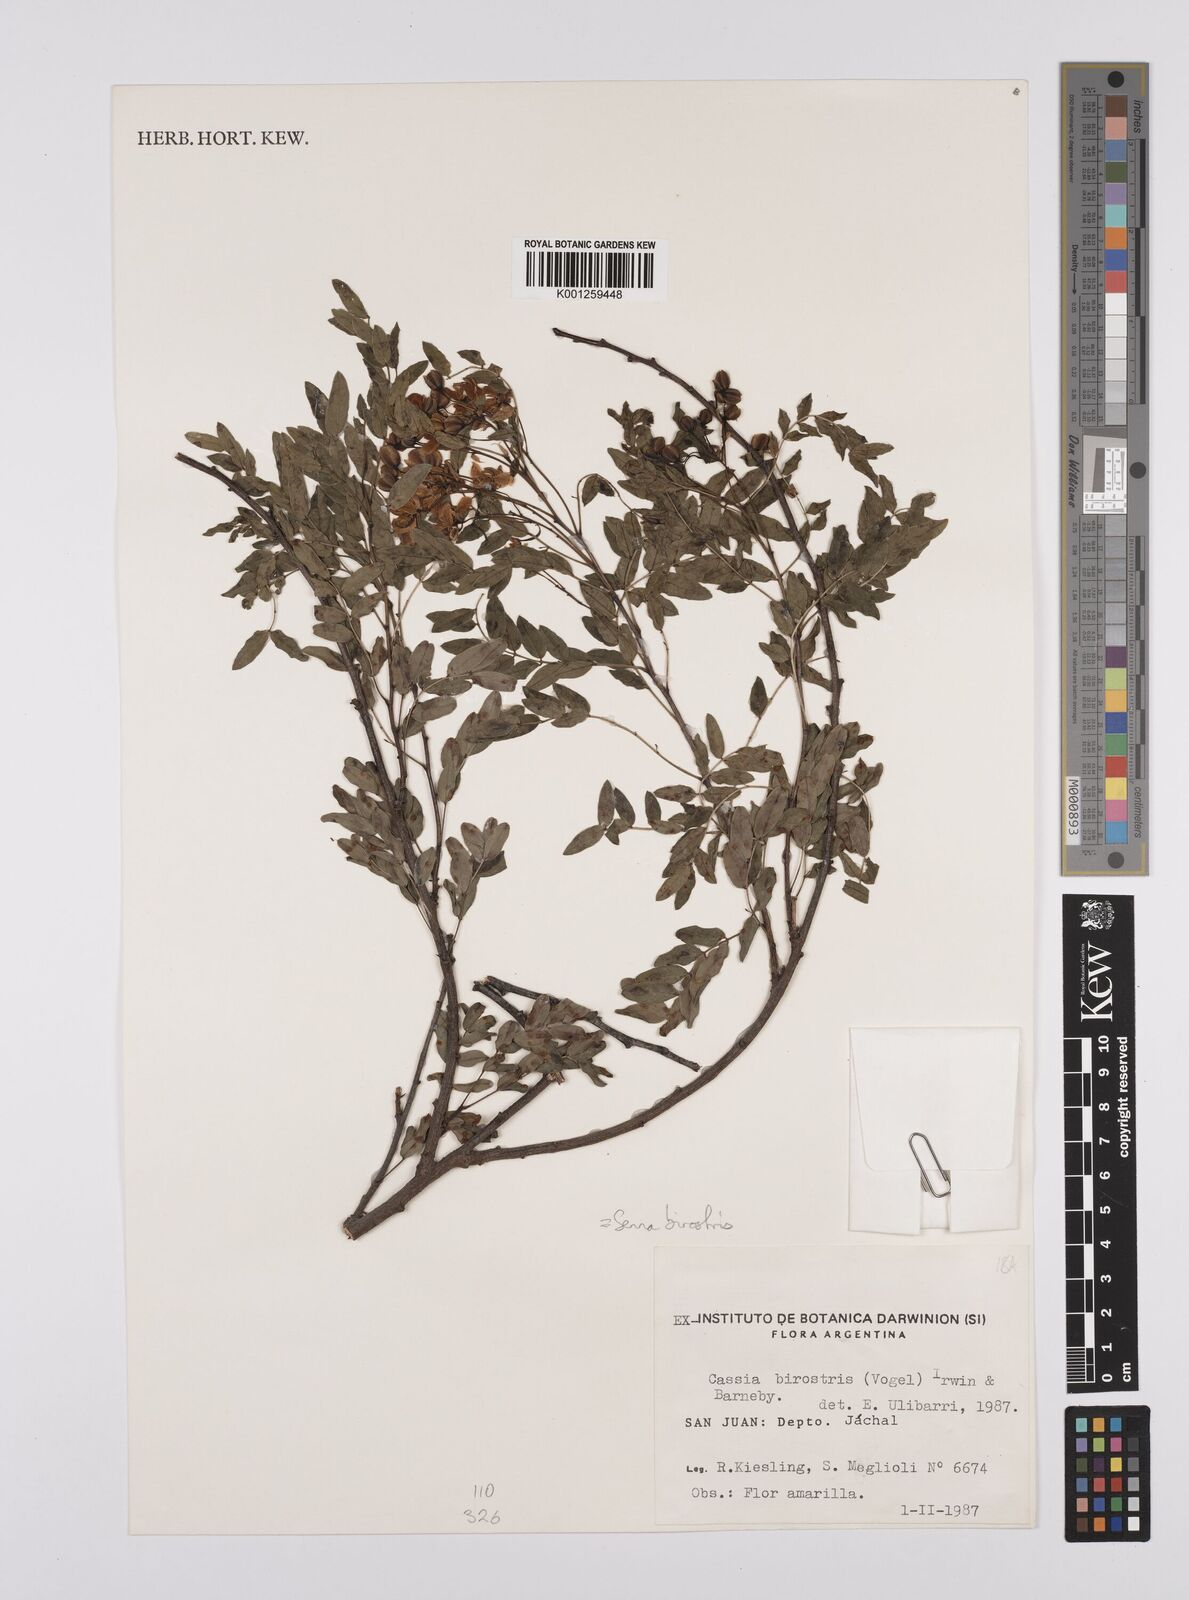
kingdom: Plantae
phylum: Tracheophyta
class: Magnoliopsida
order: Fabales
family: Fabaceae
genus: Senna
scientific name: Senna birostris
